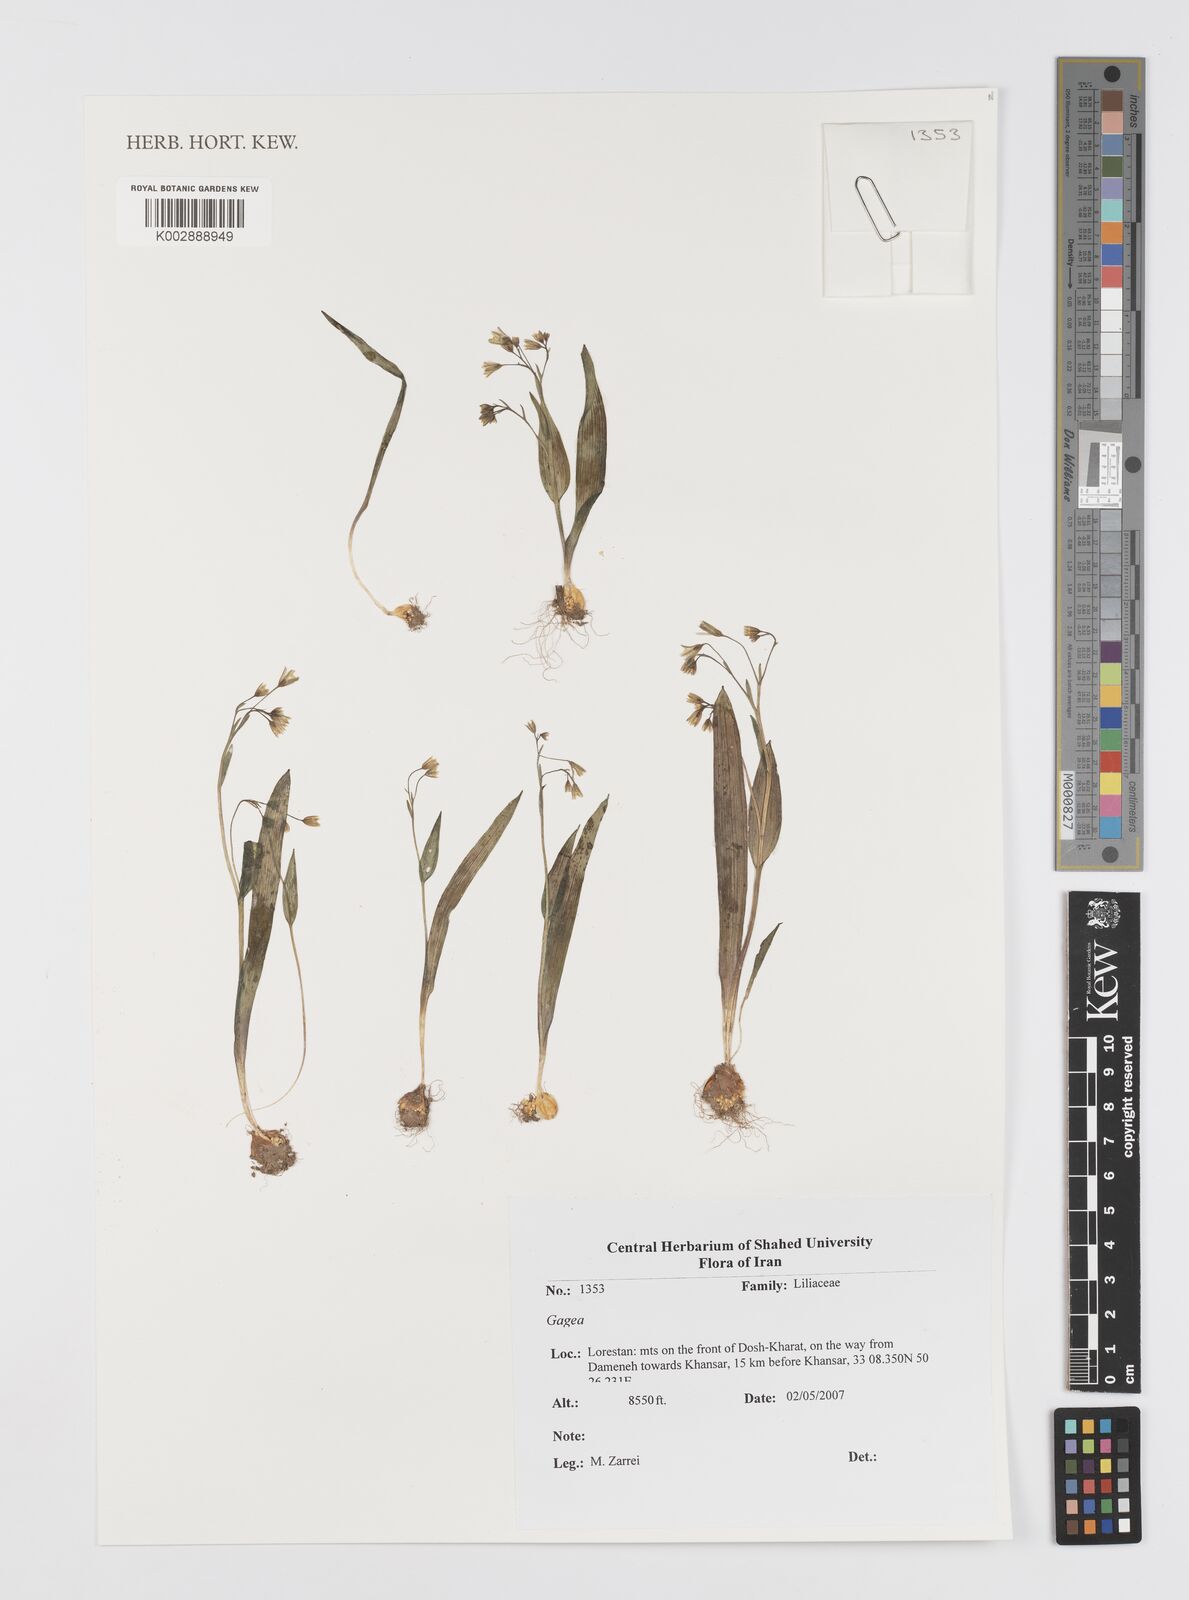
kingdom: Plantae
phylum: Tracheophyta
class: Liliopsida
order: Liliales
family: Liliaceae
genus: Gagea
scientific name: Gagea
